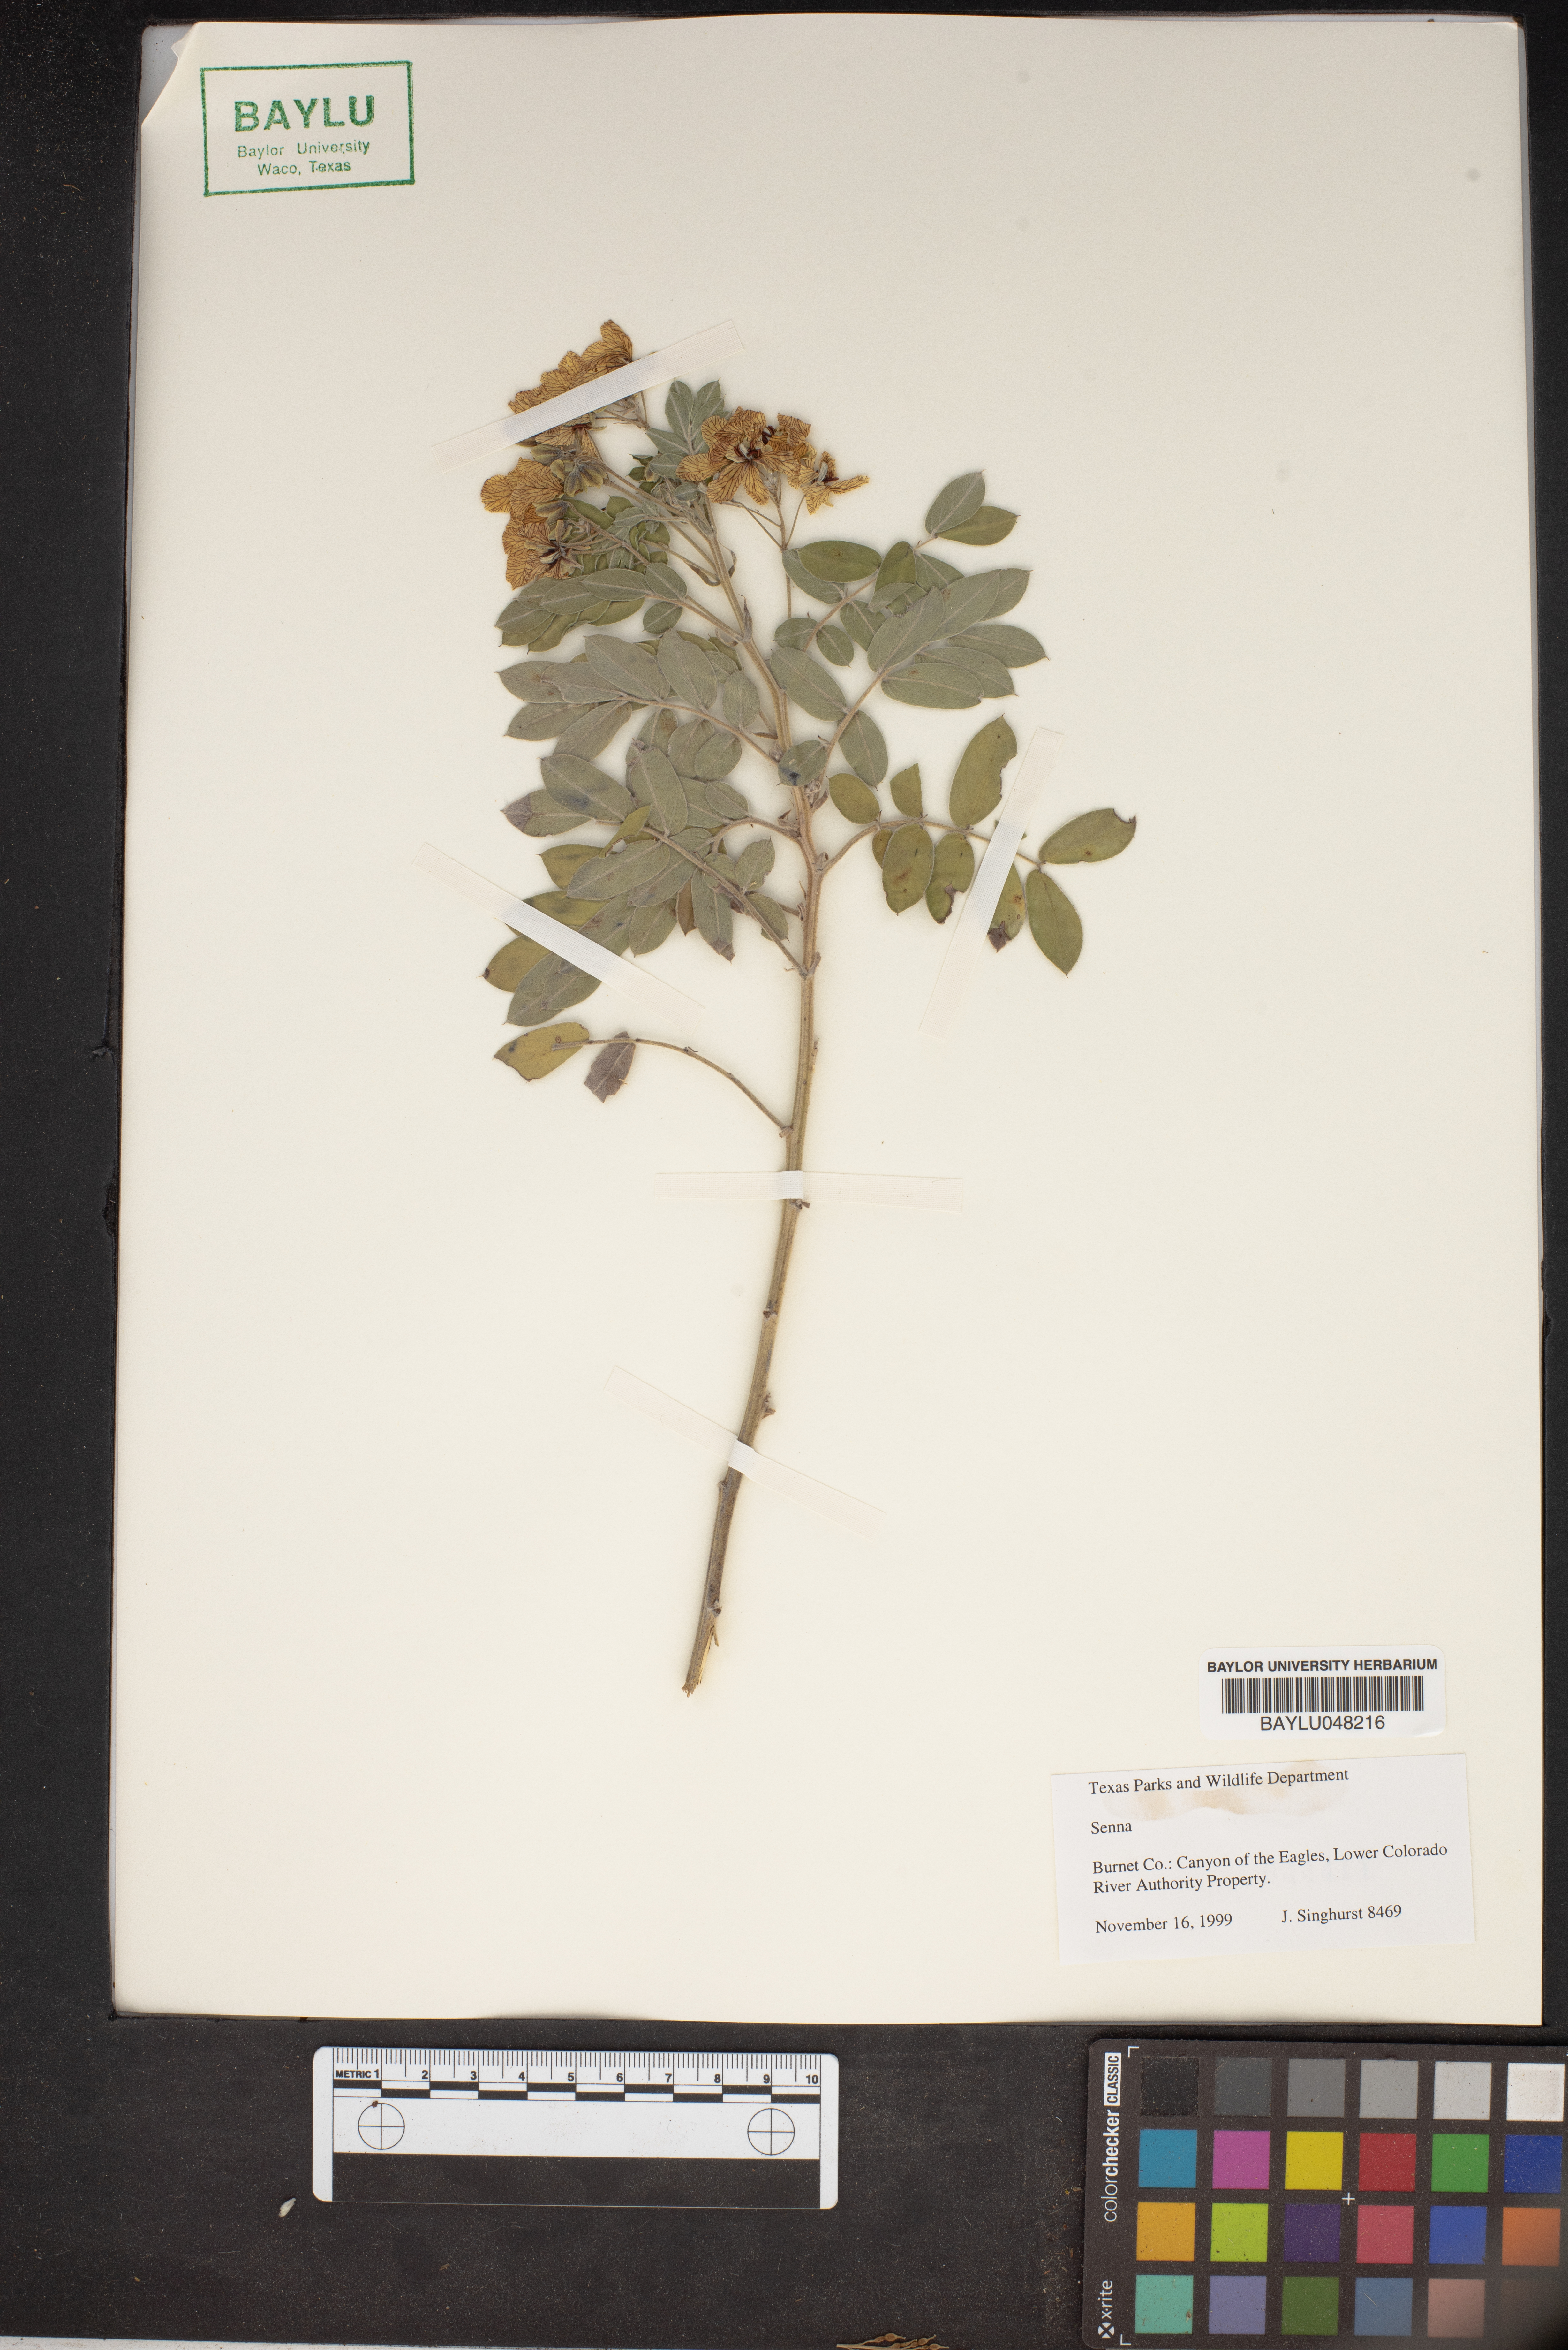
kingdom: Plantae
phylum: Tracheophyta
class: Magnoliopsida
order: Fabales
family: Fabaceae
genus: Senna
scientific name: Senna
